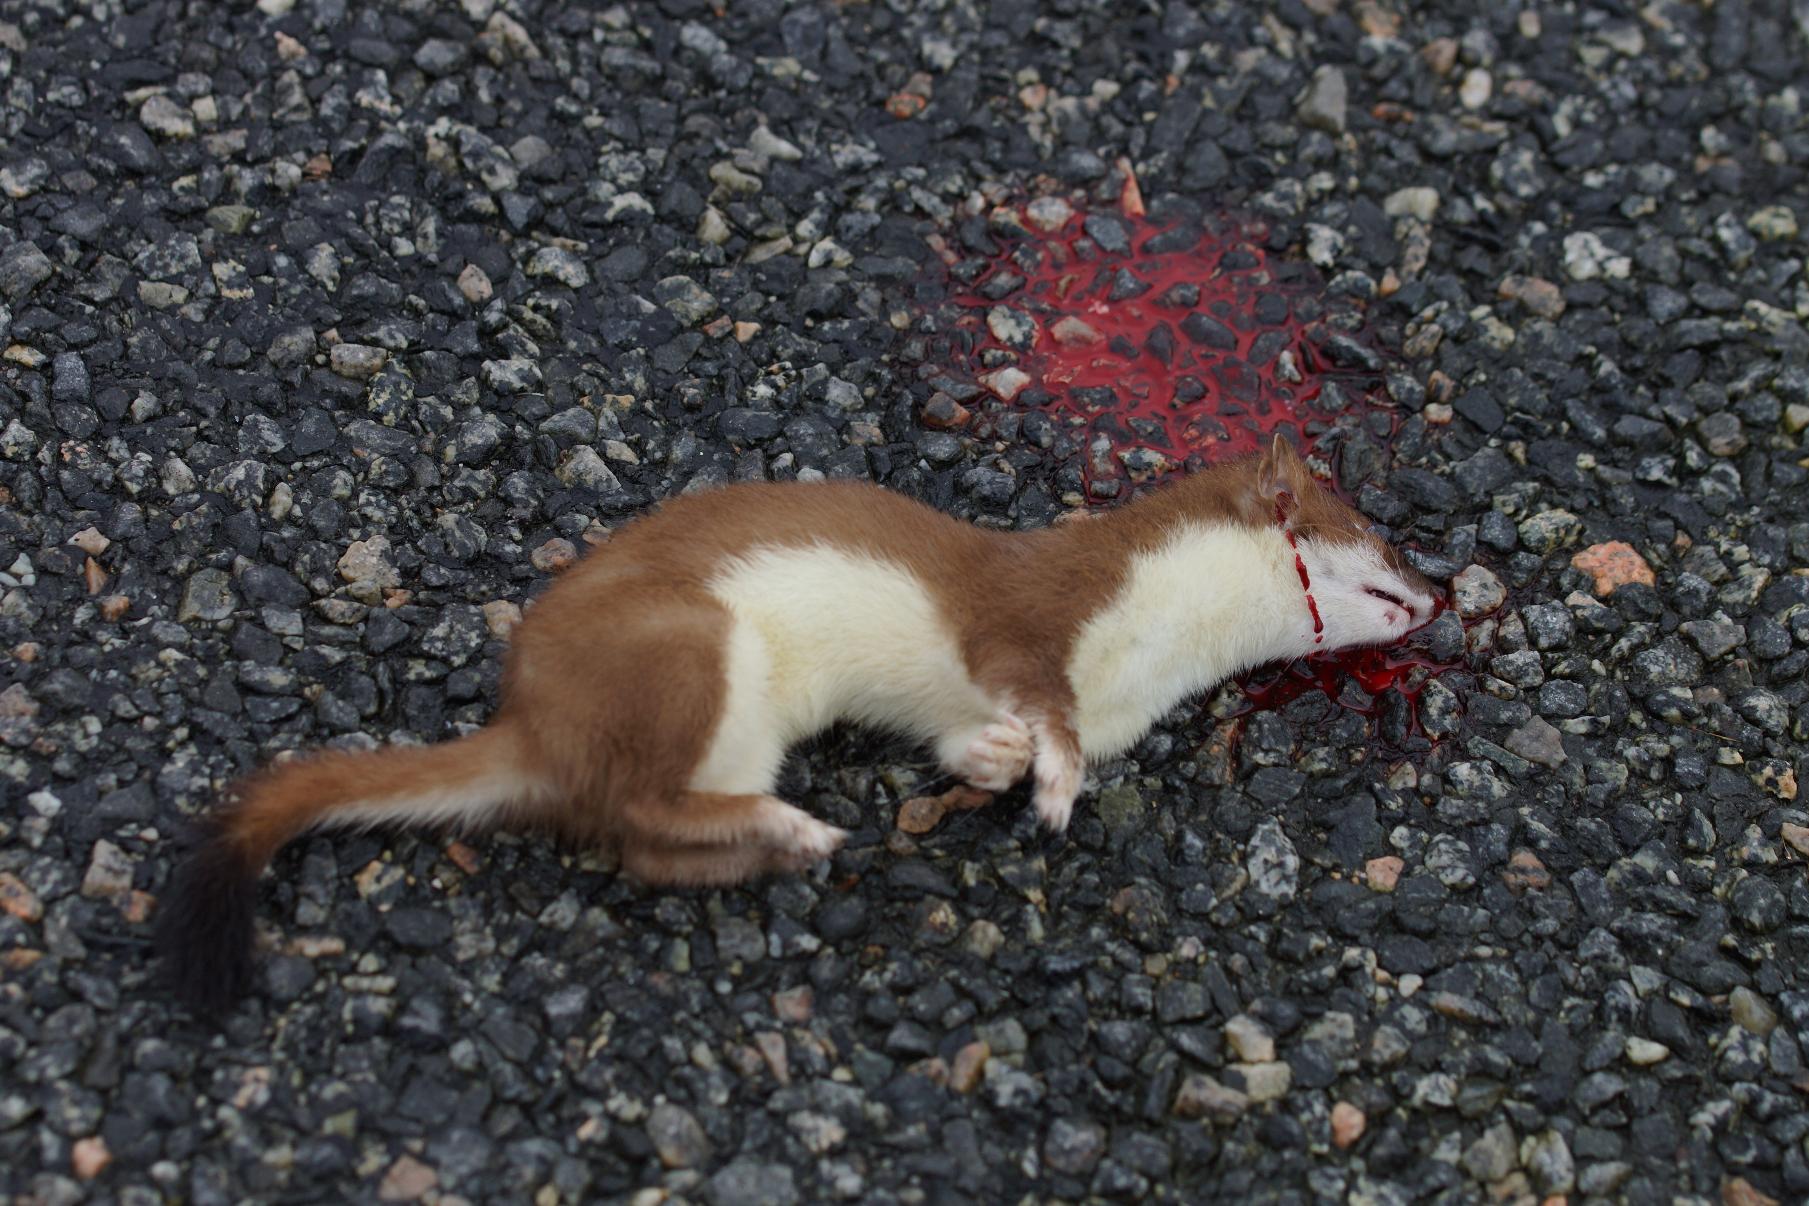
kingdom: Animalia
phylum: Chordata
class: Mammalia
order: Carnivora
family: Mustelidae
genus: Mustela
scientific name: Mustela erminea
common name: Lækat
